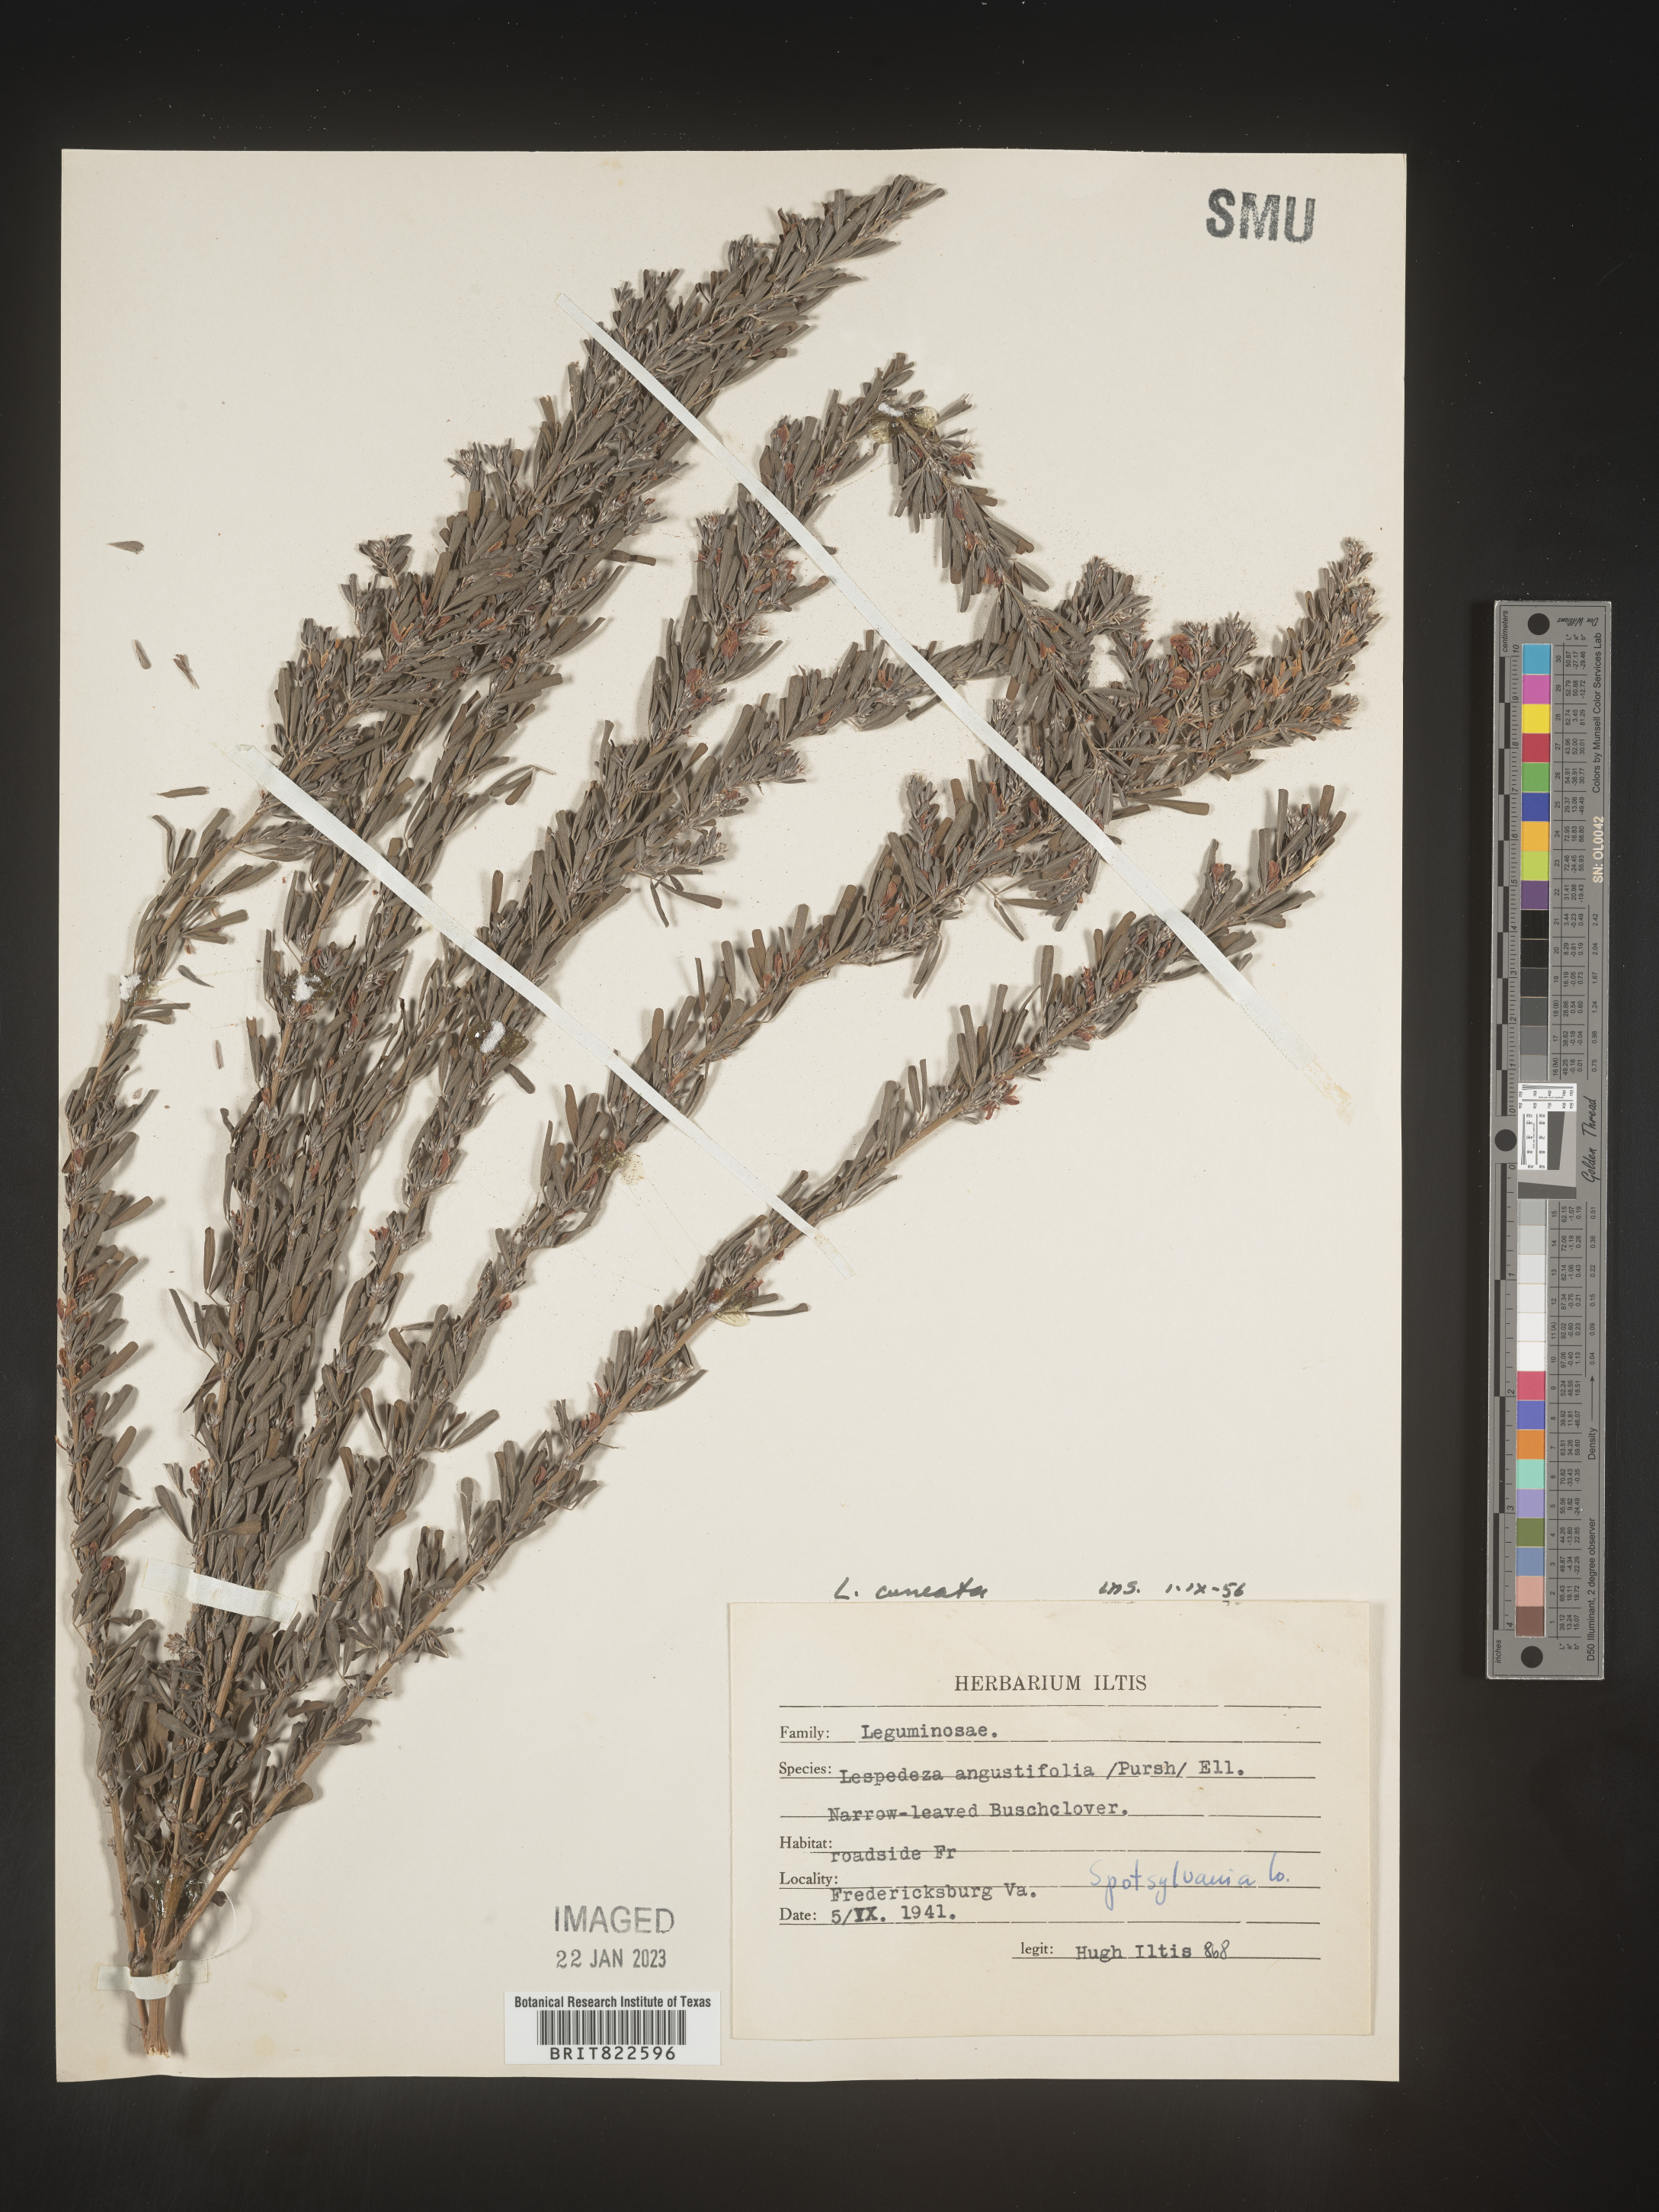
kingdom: Plantae
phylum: Tracheophyta
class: Magnoliopsida
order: Fabales
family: Fabaceae
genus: Lespedeza
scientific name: Lespedeza cuneata
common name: Chinese bush-clover
